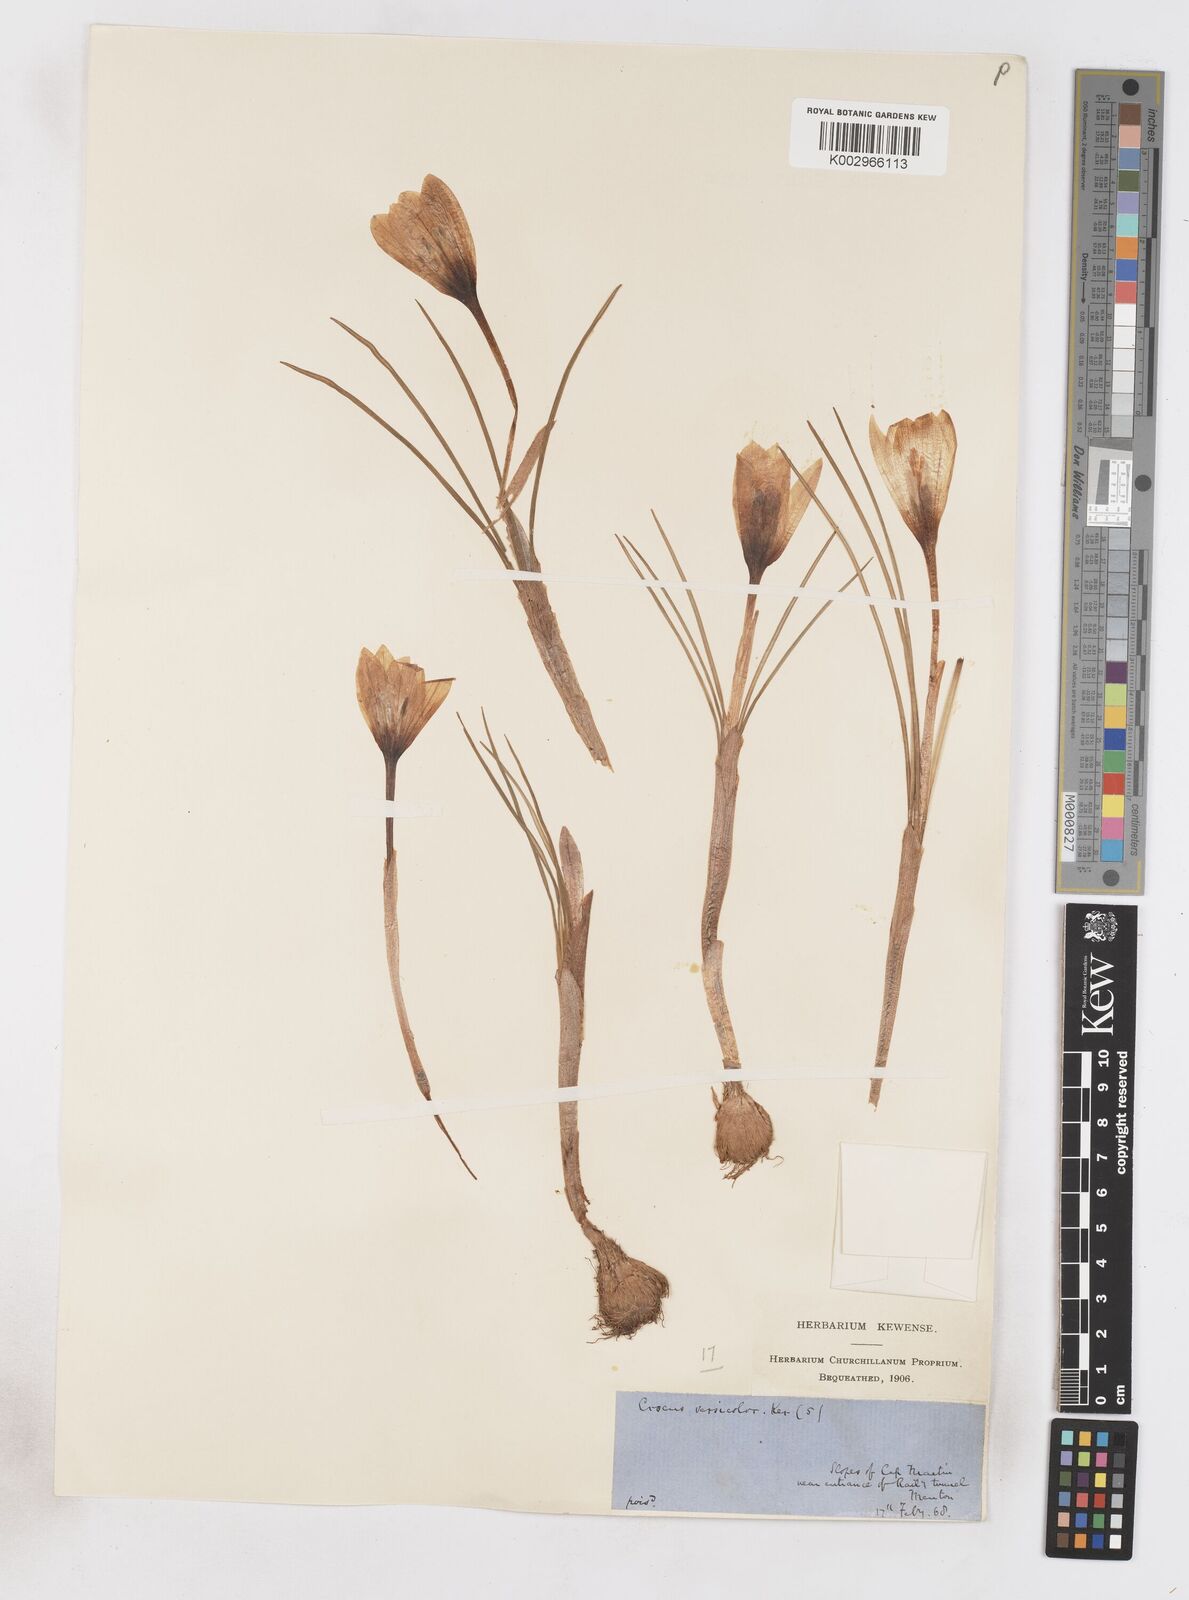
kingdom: Plantae
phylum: Tracheophyta
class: Liliopsida
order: Asparagales
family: Iridaceae
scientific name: Iridaceae
